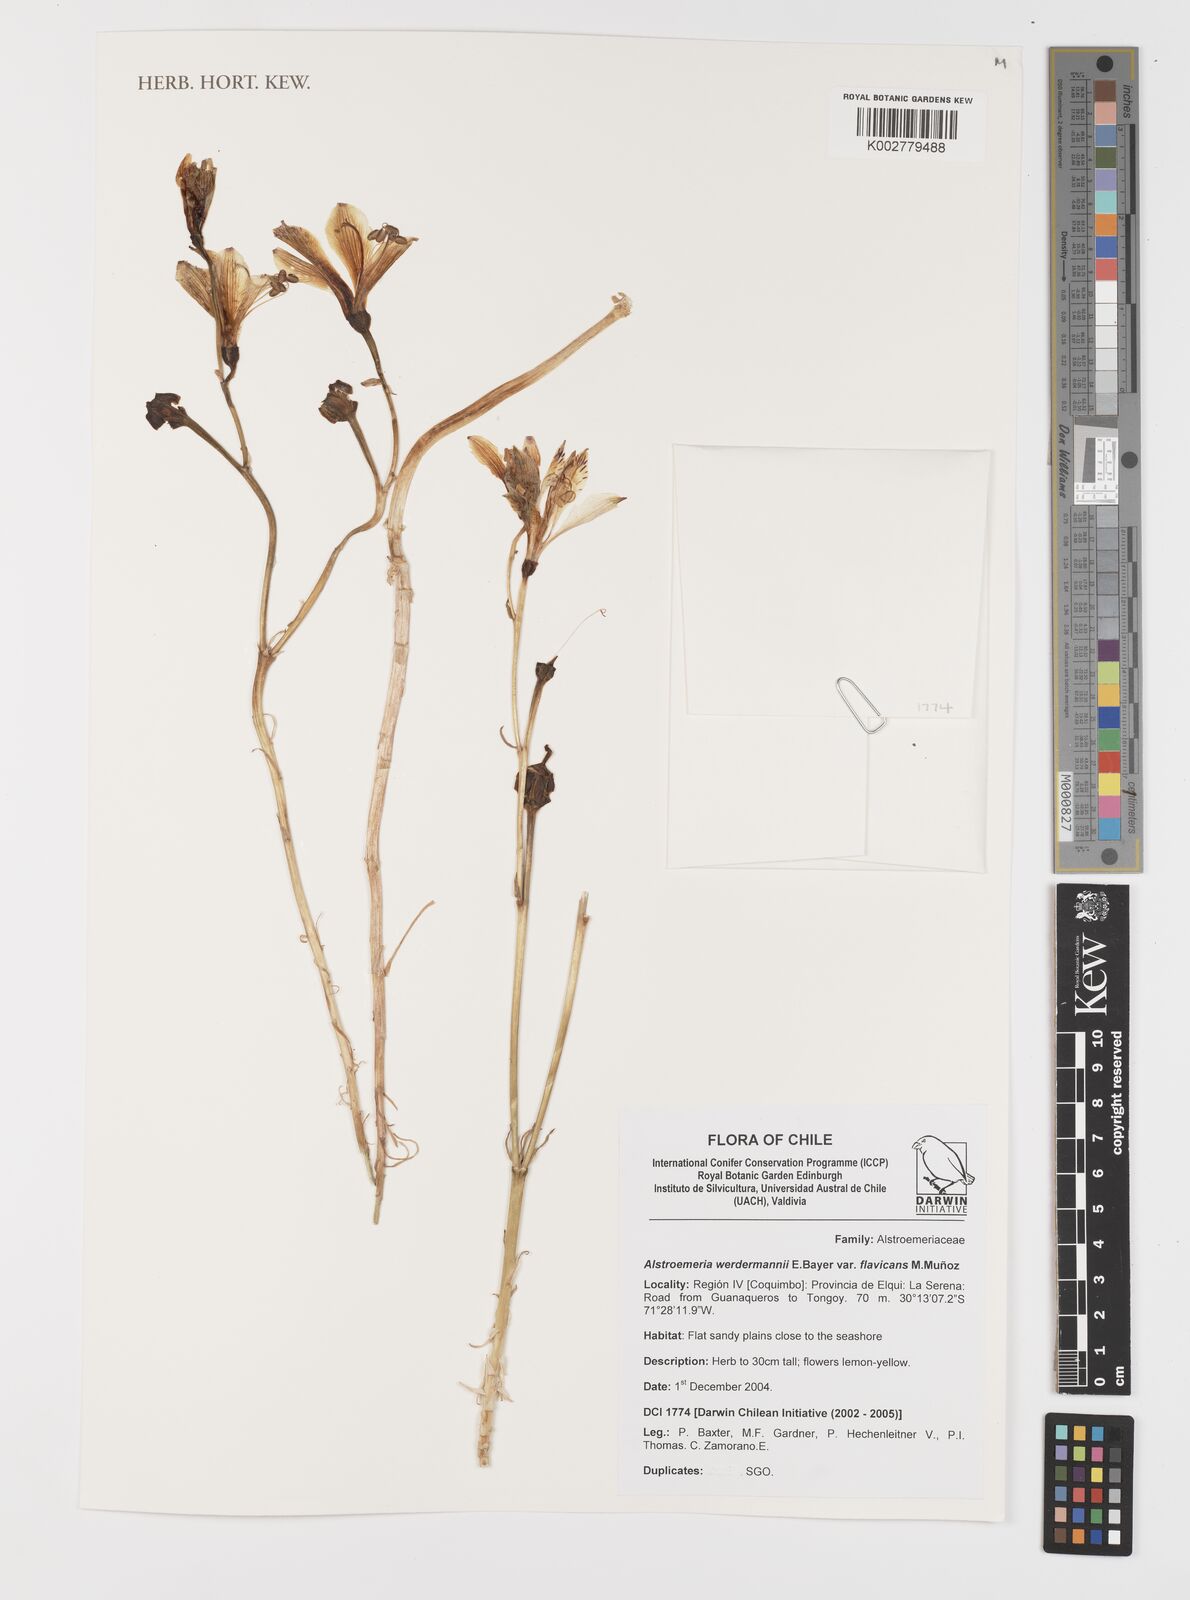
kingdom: Plantae
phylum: Tracheophyta
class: Liliopsida
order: Liliales
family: Alstroemeriaceae
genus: Alstroemeria
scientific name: Alstroemeria werdermannii
